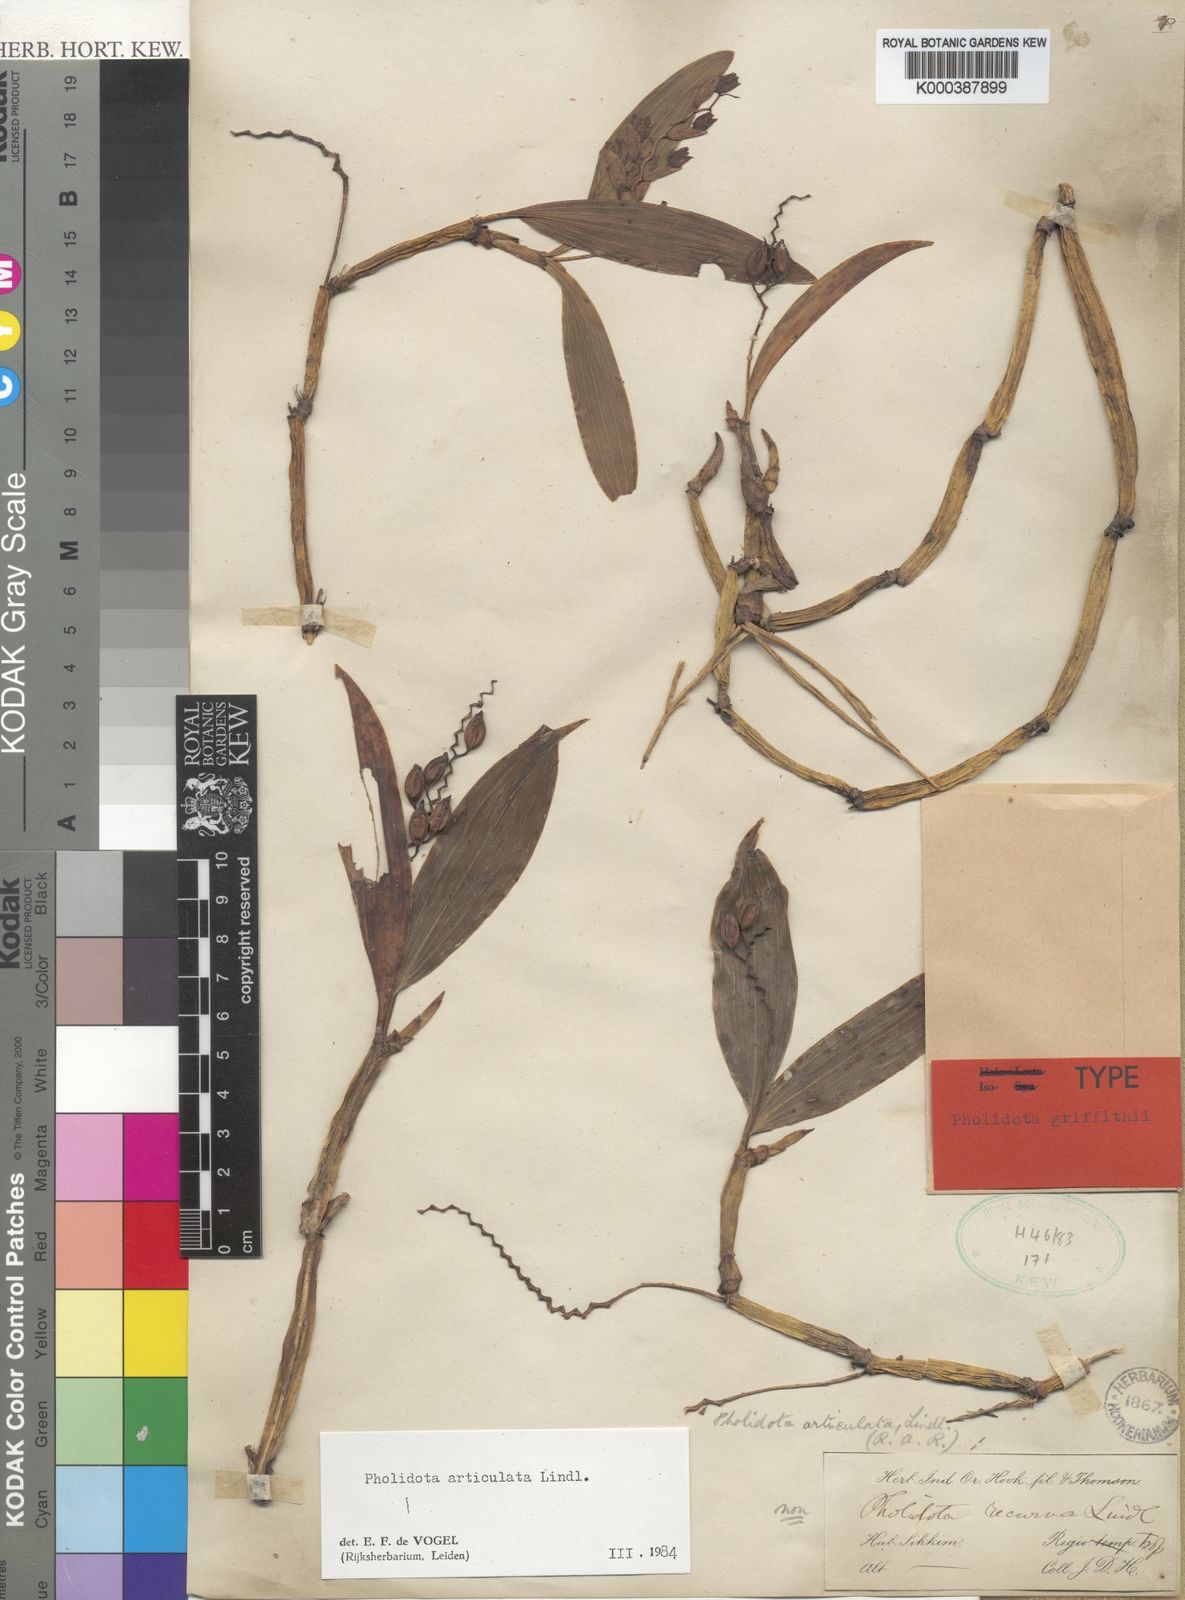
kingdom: Plantae
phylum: Tracheophyta
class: Liliopsida
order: Asparagales
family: Orchidaceae
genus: Coelogyne
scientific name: Coelogyne articulata
